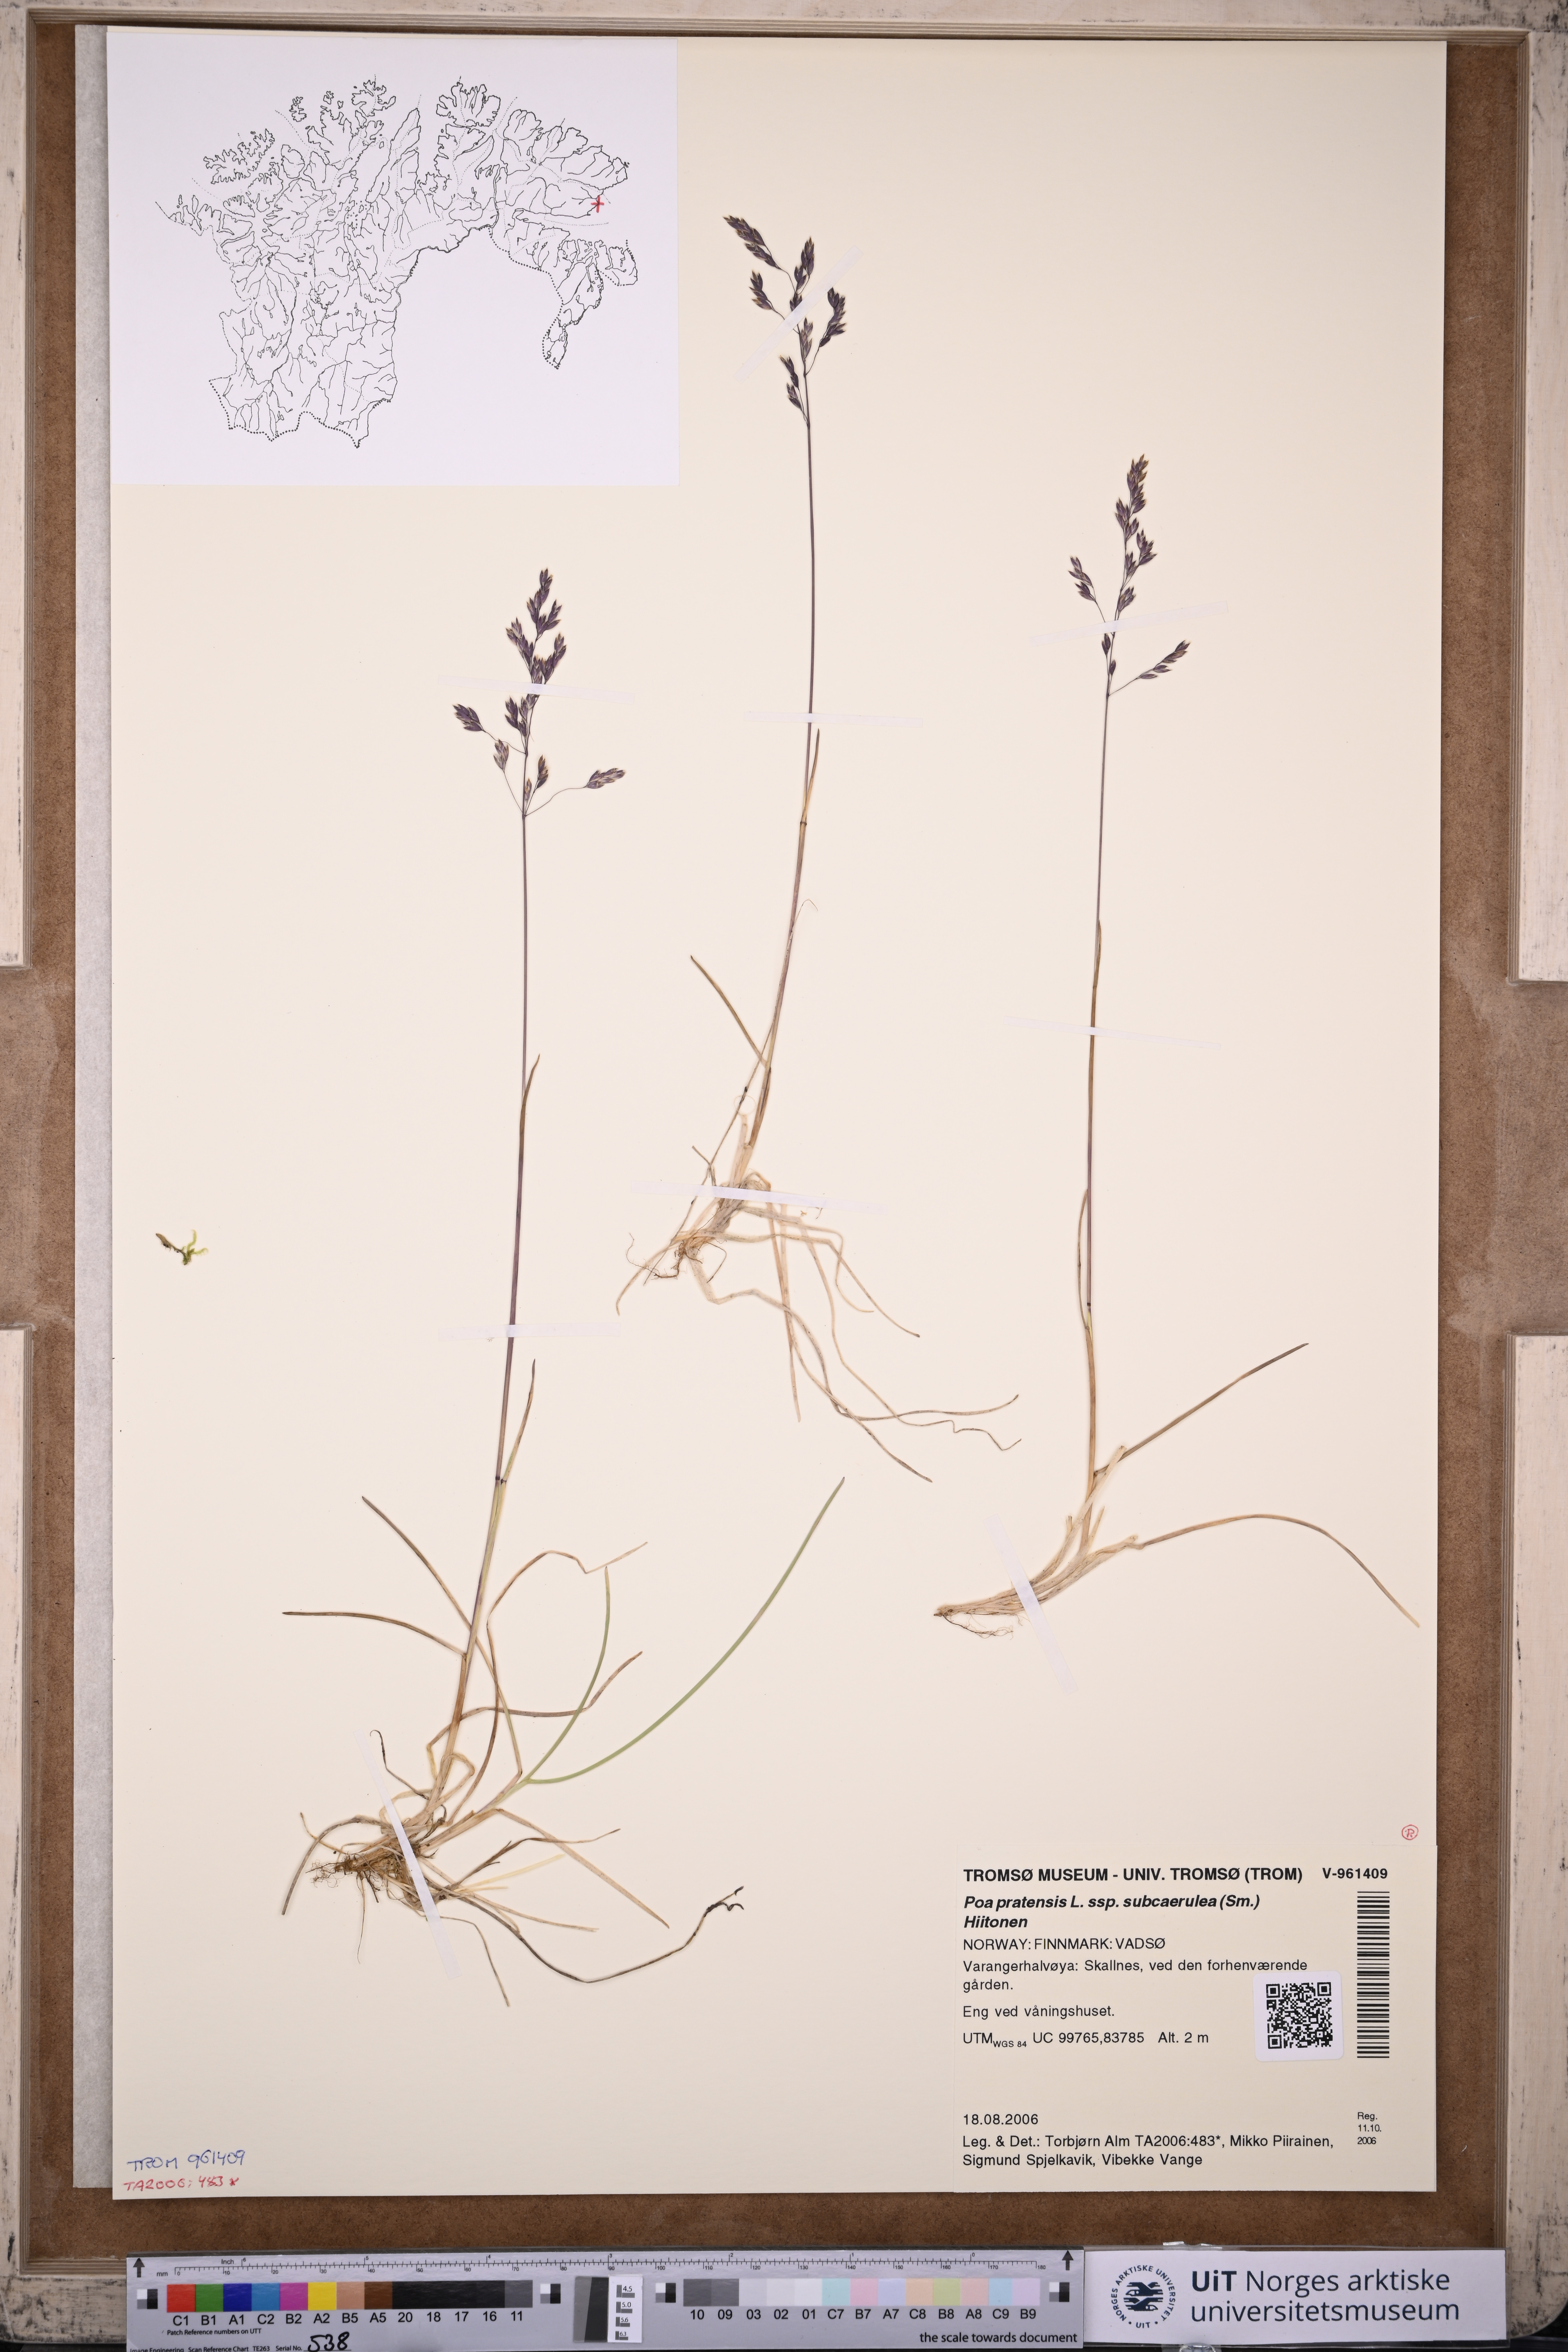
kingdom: Plantae
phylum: Tracheophyta
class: Liliopsida
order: Poales
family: Poaceae
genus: Poa
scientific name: Poa humilis
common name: Spreading meadow-grass
